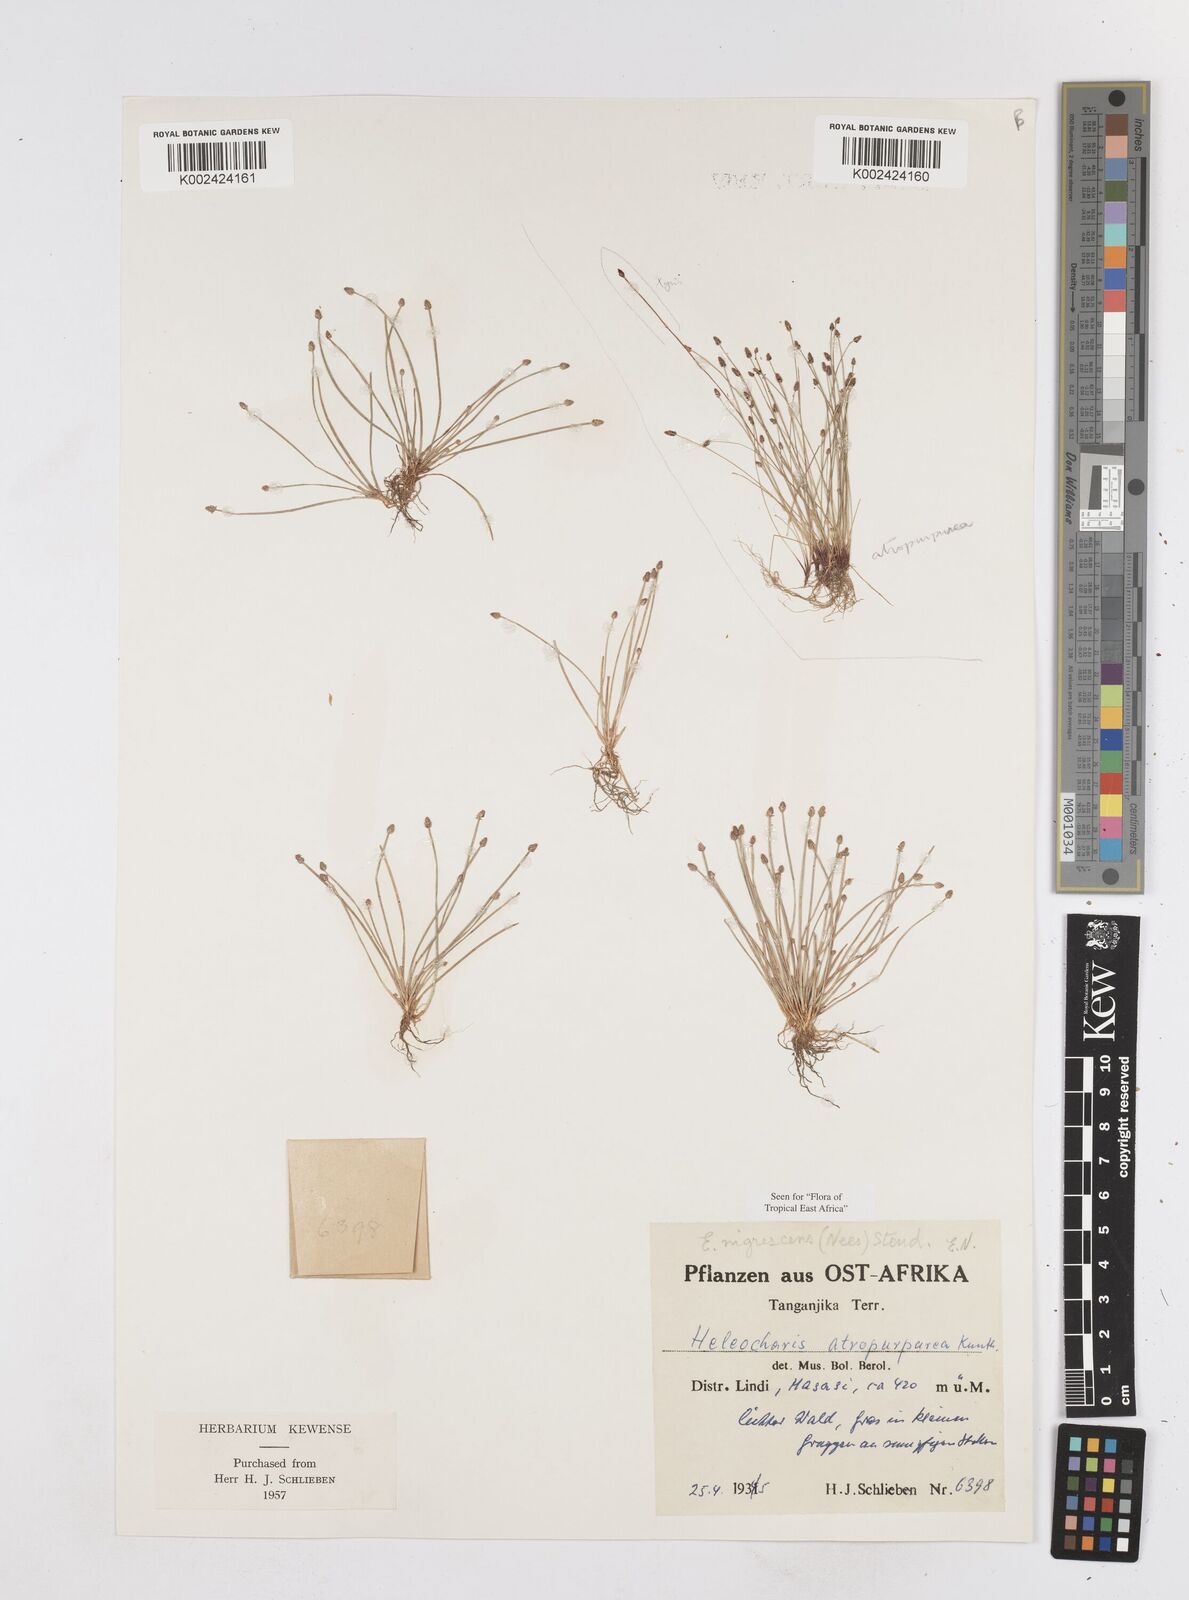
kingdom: Plantae
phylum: Tracheophyta
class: Liliopsida
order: Poales
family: Cyperaceae
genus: Eleocharis
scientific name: Eleocharis nigrescens
